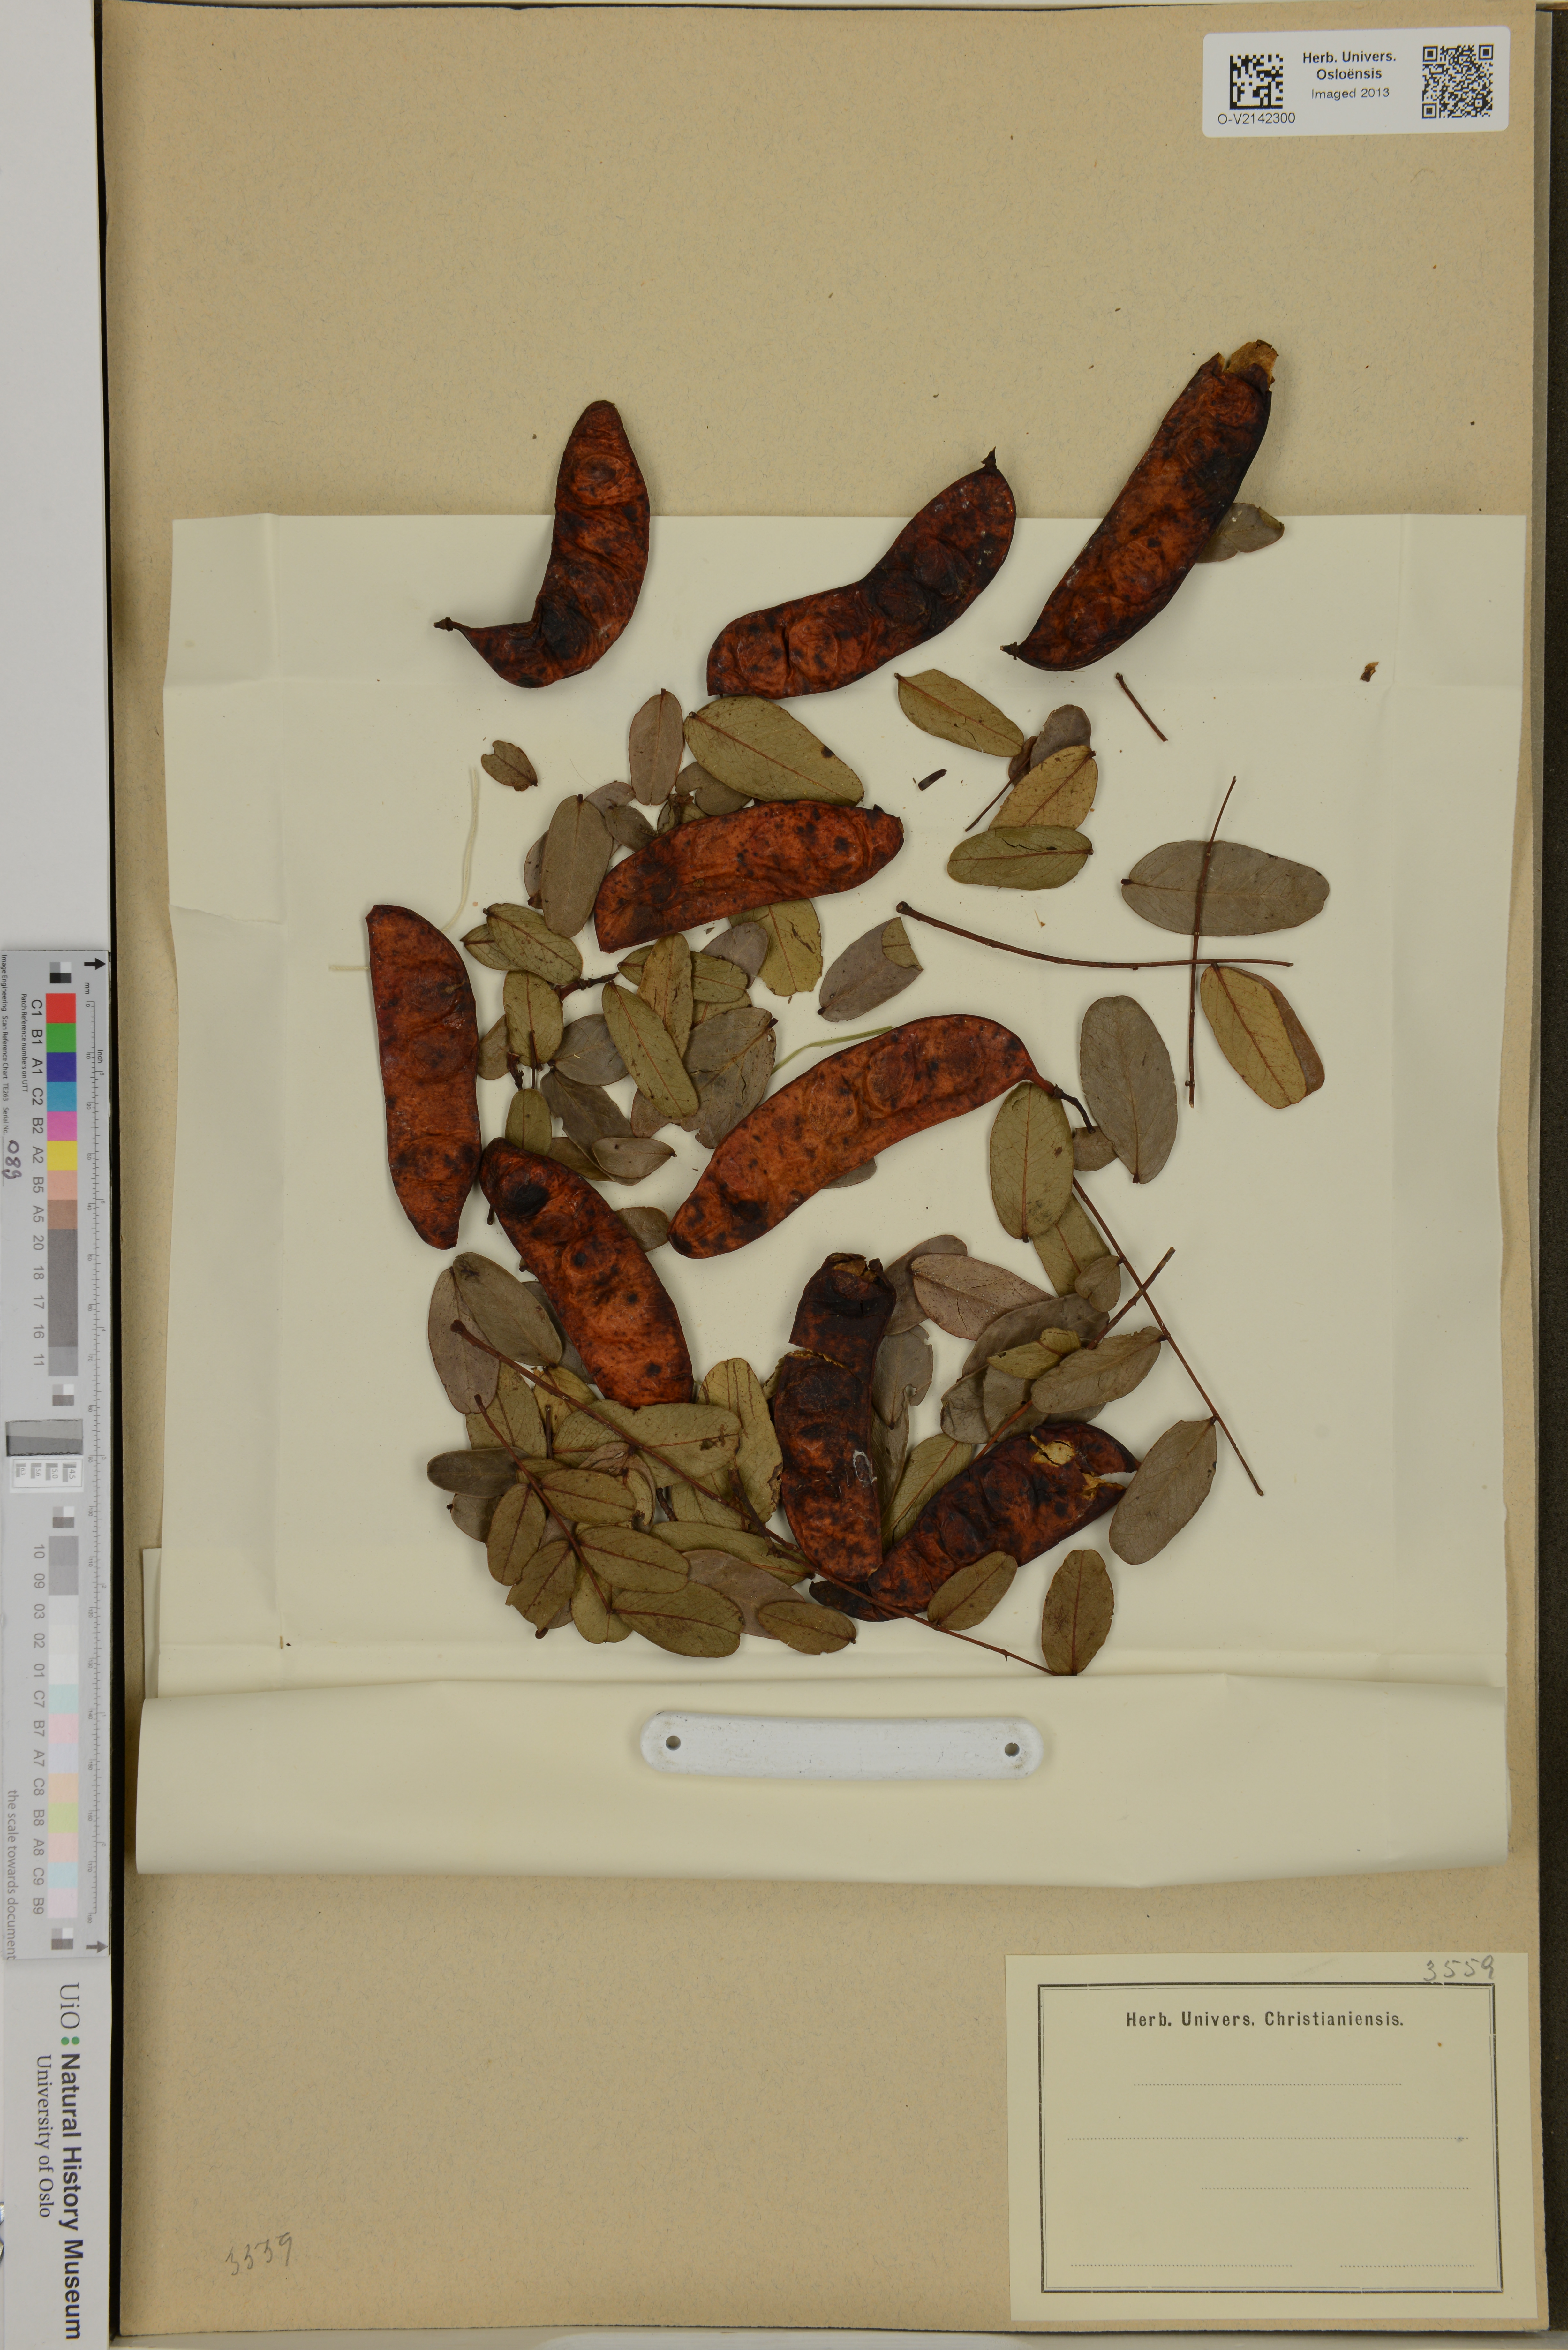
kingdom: Plantae
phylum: Tracheophyta
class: Magnoliopsida
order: Fabales
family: Fabaceae
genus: Tara
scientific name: Tara spinosa
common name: Spiny holdback
